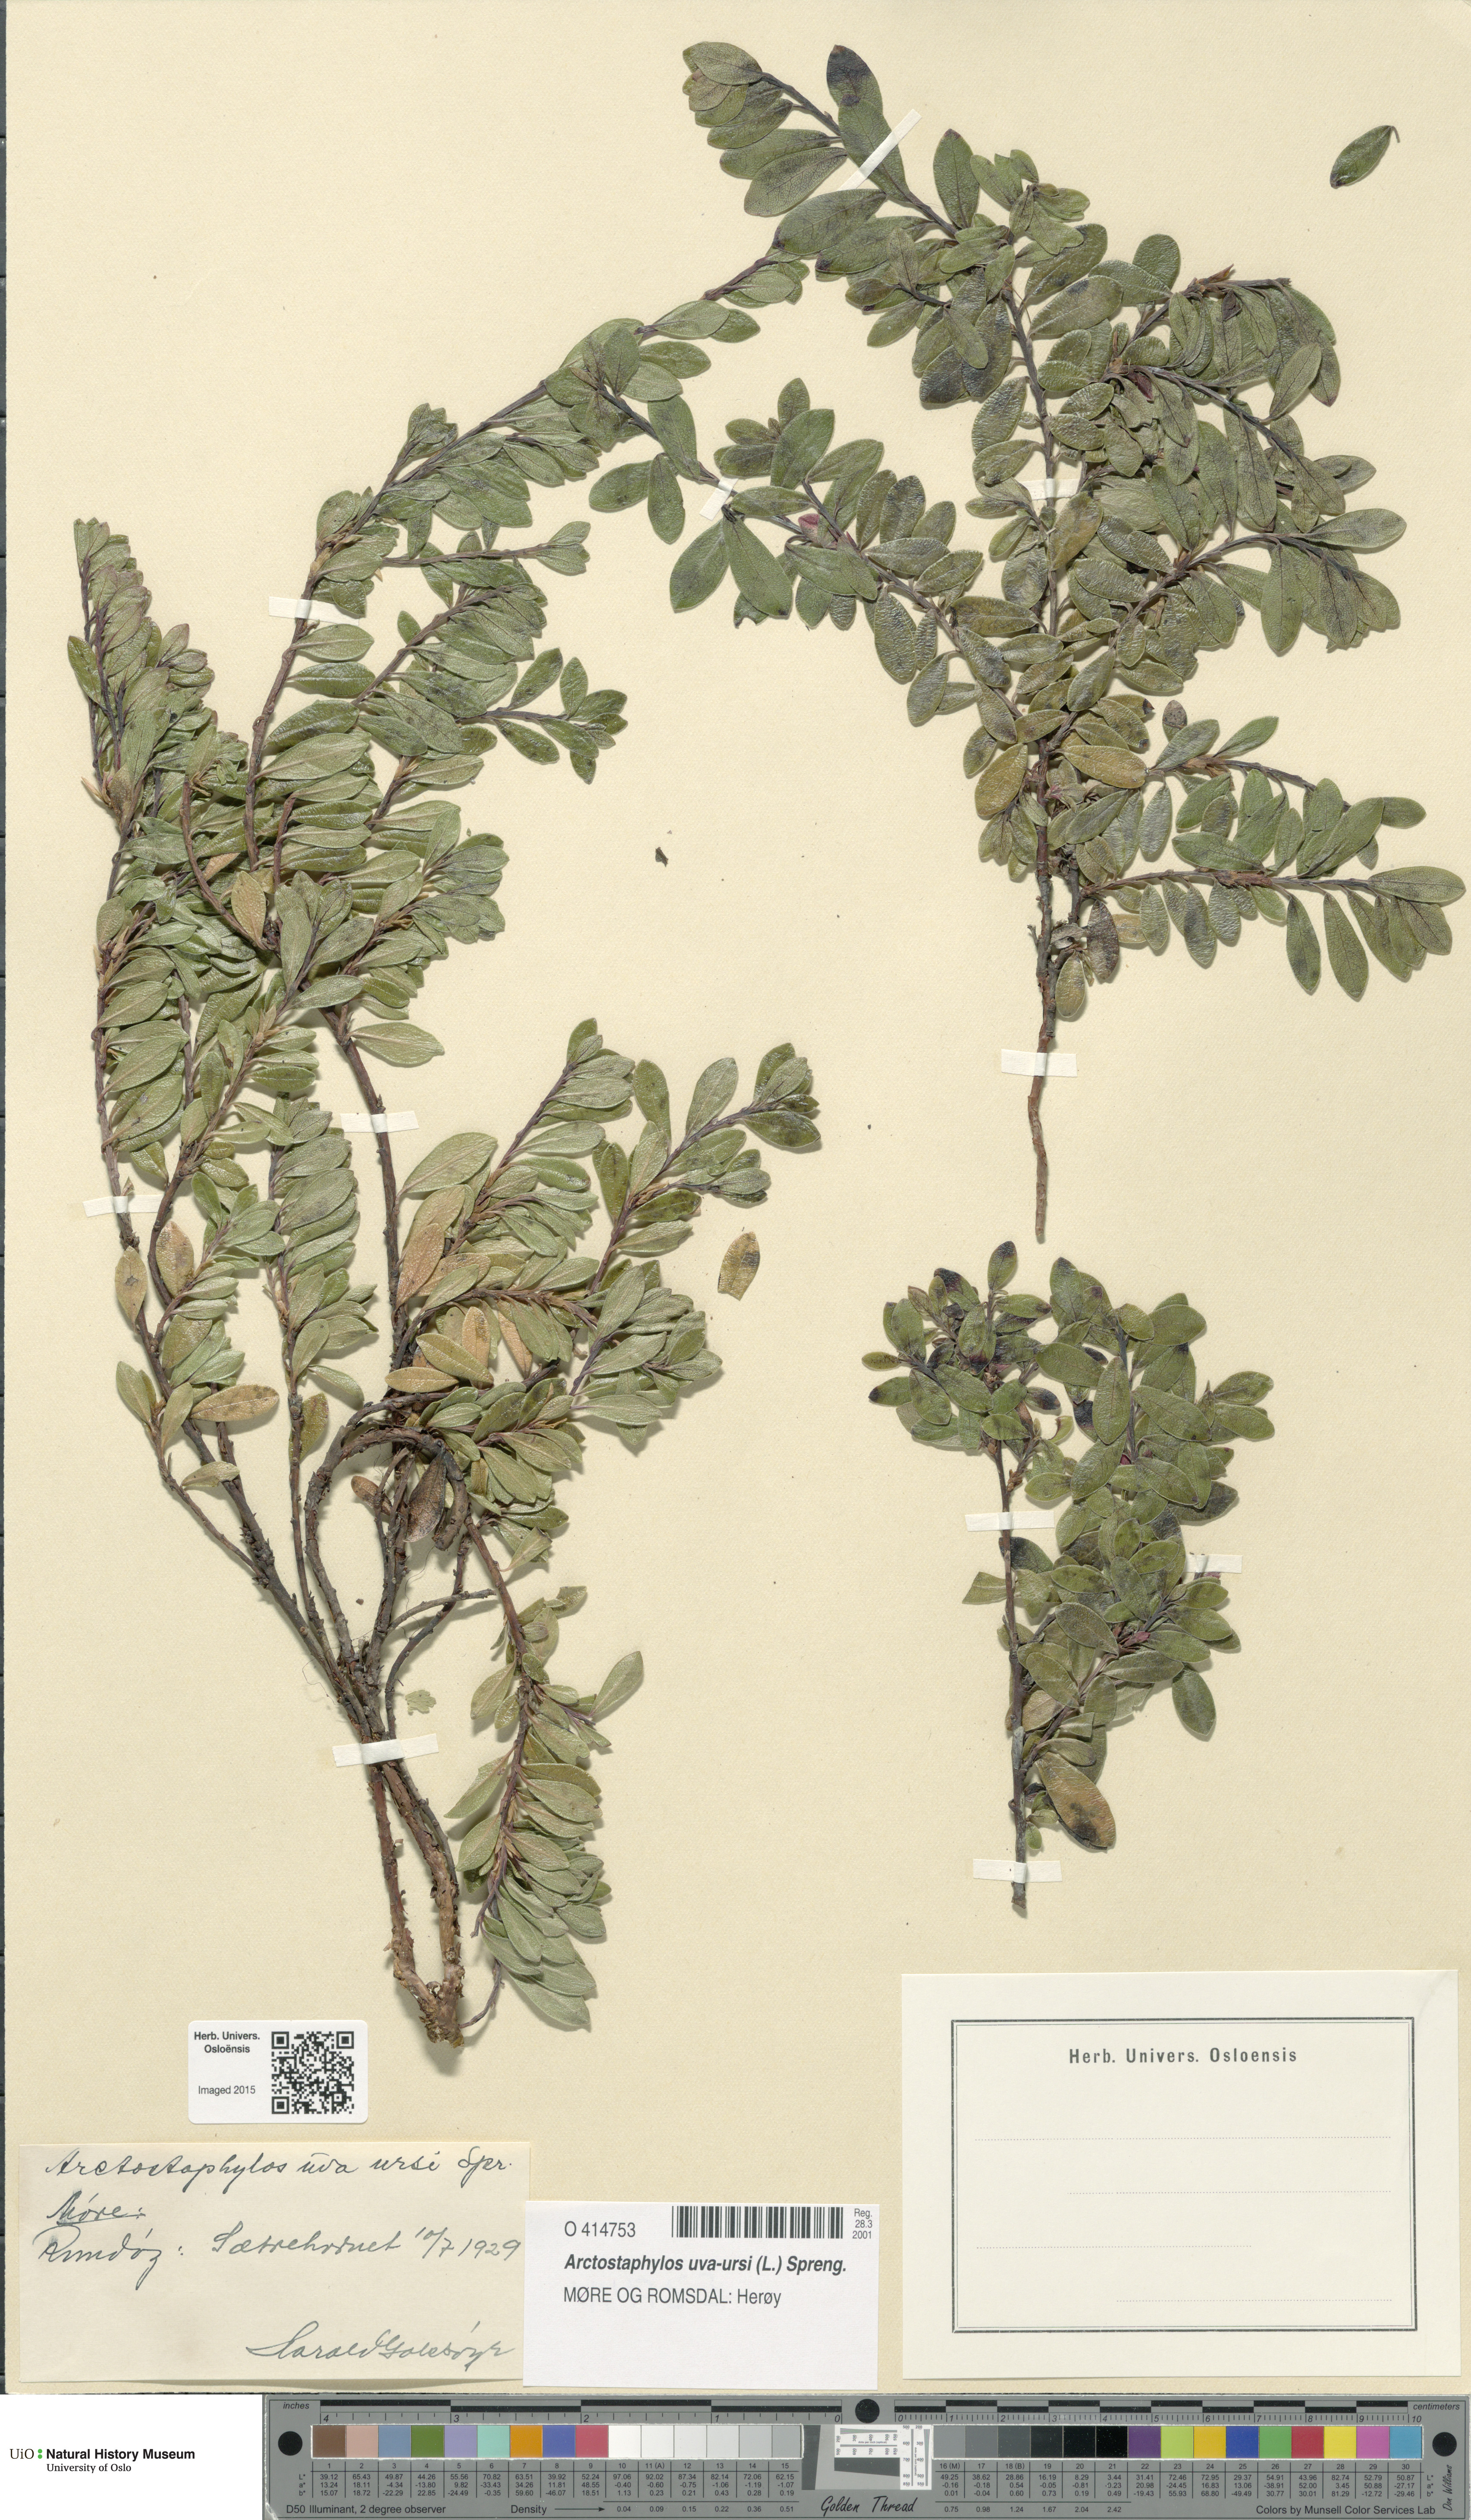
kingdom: Plantae
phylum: Tracheophyta
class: Magnoliopsida
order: Ericales
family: Ericaceae
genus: Arctostaphylos
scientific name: Arctostaphylos uva-ursi
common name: Bearberry
